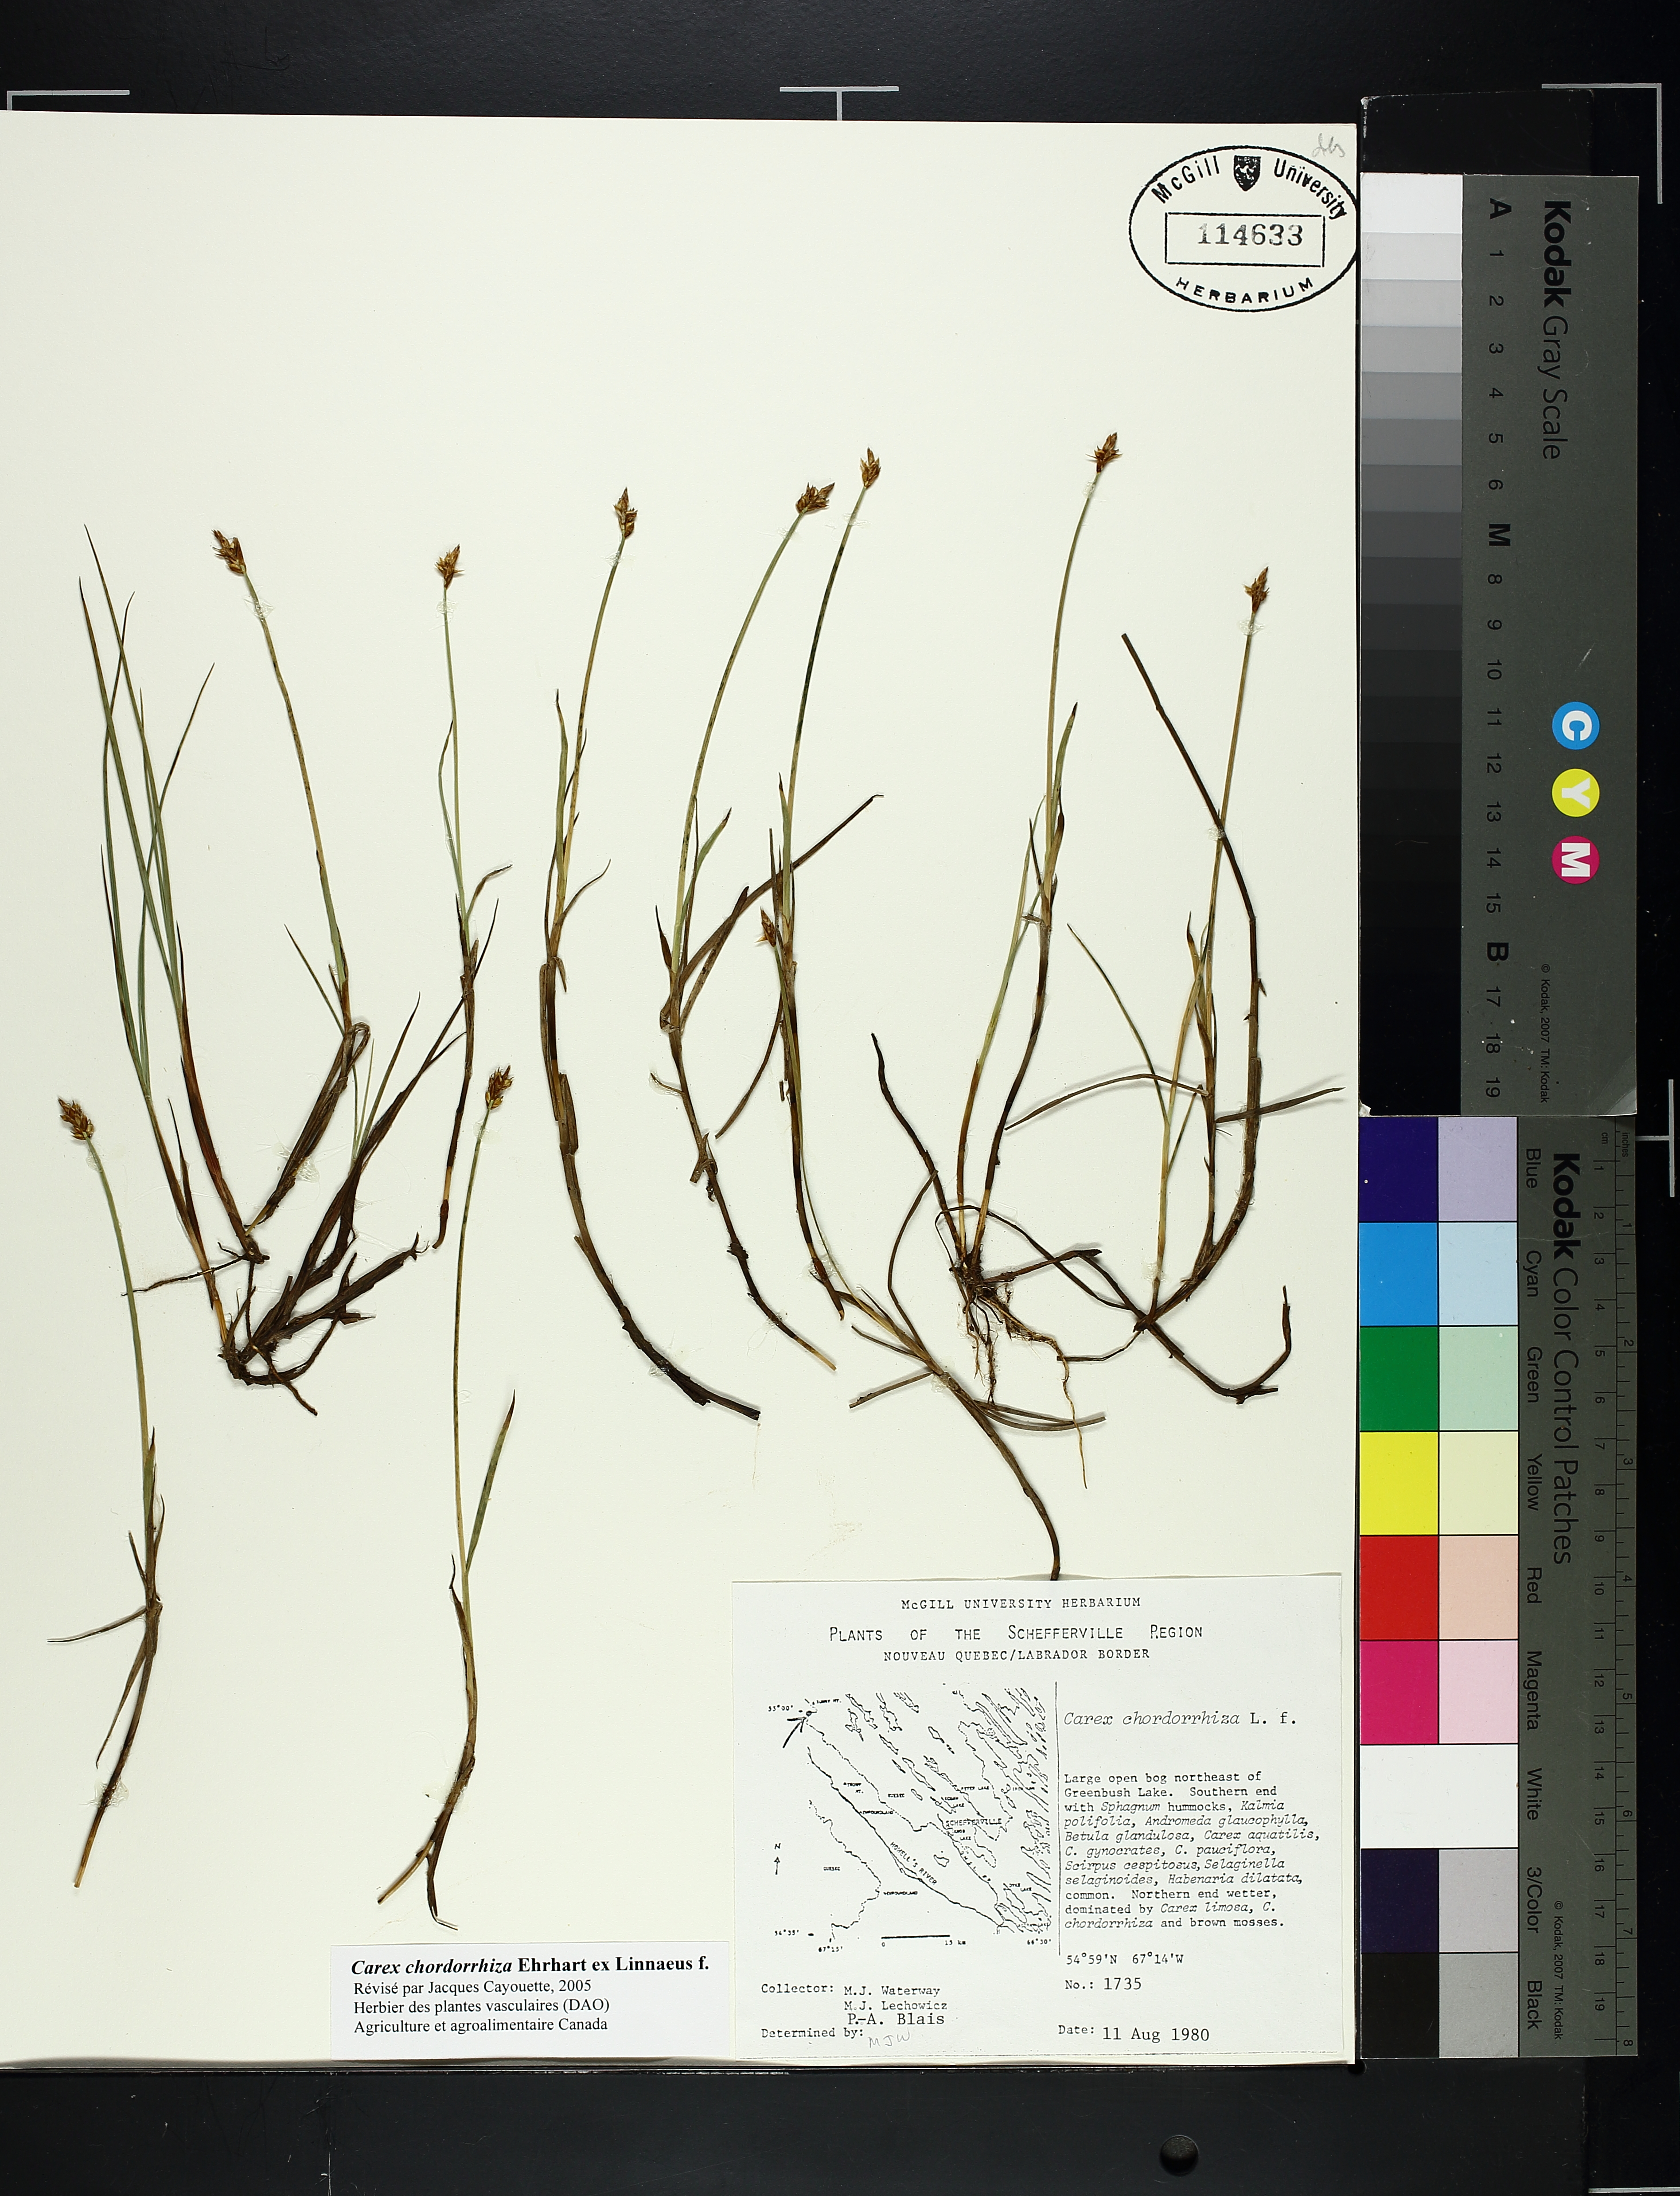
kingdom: Plantae
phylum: Tracheophyta
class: Liliopsida
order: Poales
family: Cyperaceae
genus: Carex
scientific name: Carex
